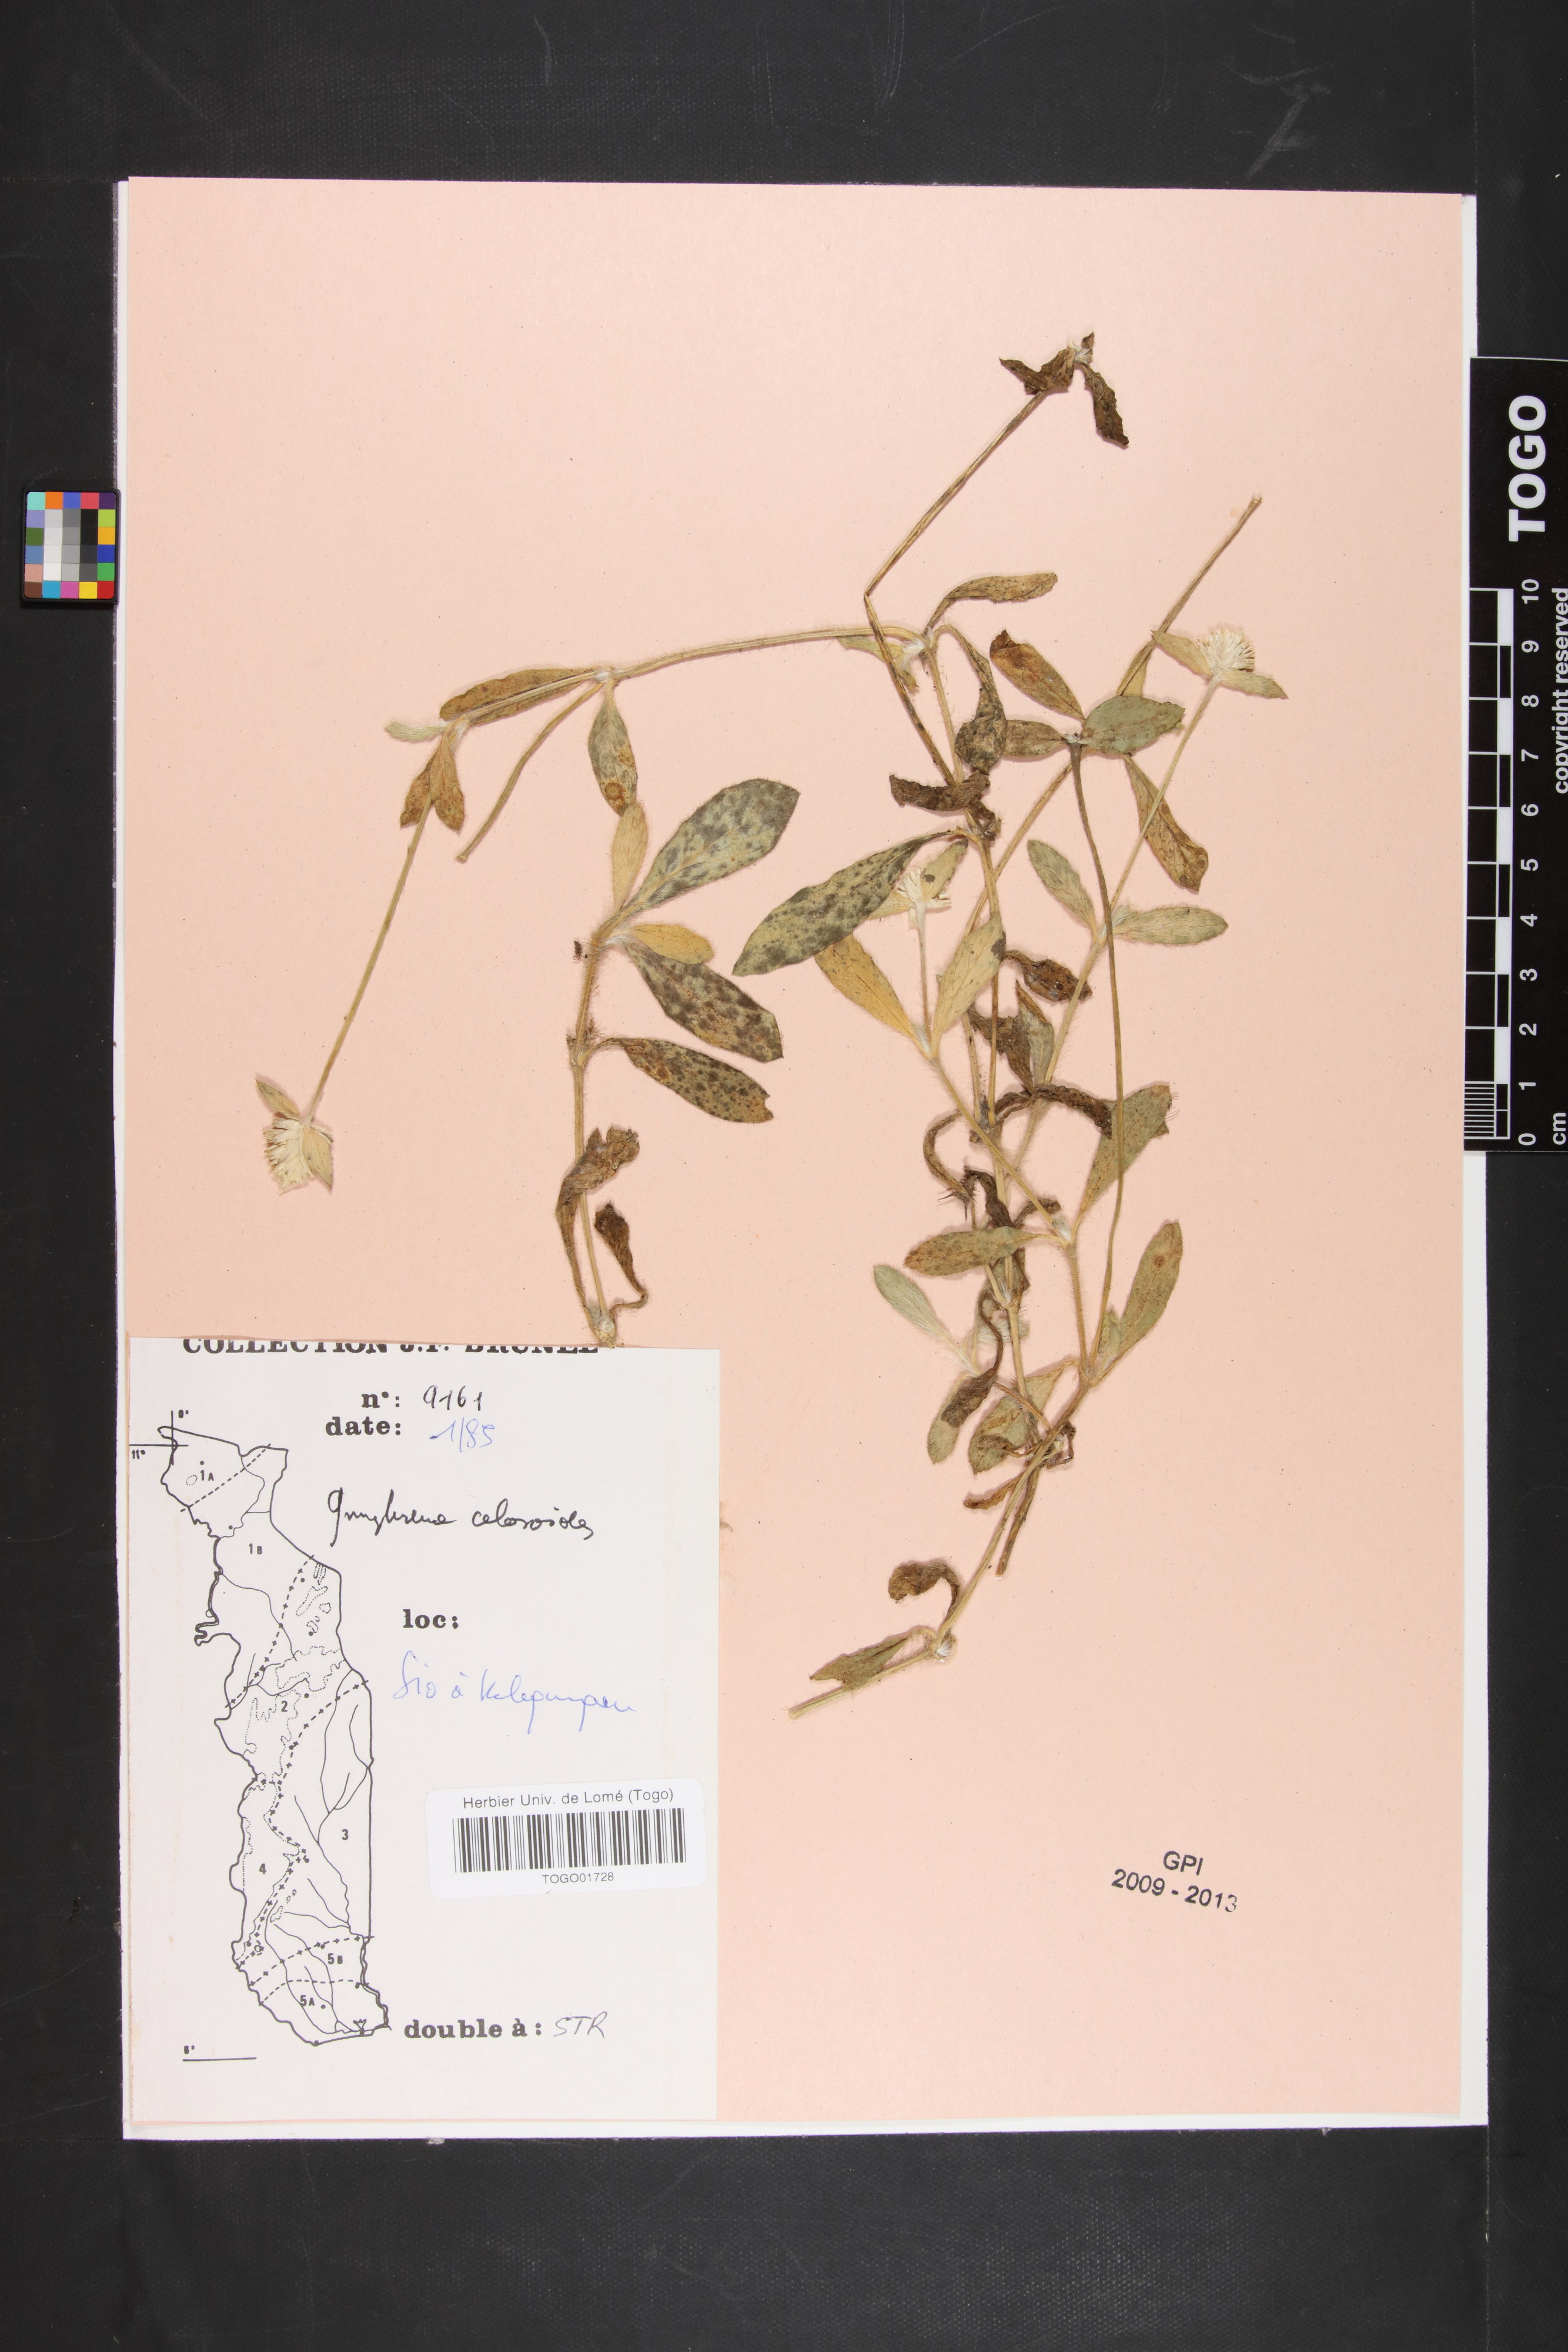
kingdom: Plantae
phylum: Tracheophyta
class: Magnoliopsida
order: Caryophyllales
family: Amaranthaceae
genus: Gomphrena
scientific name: Gomphrena celosioides
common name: Gomphrena-weed
